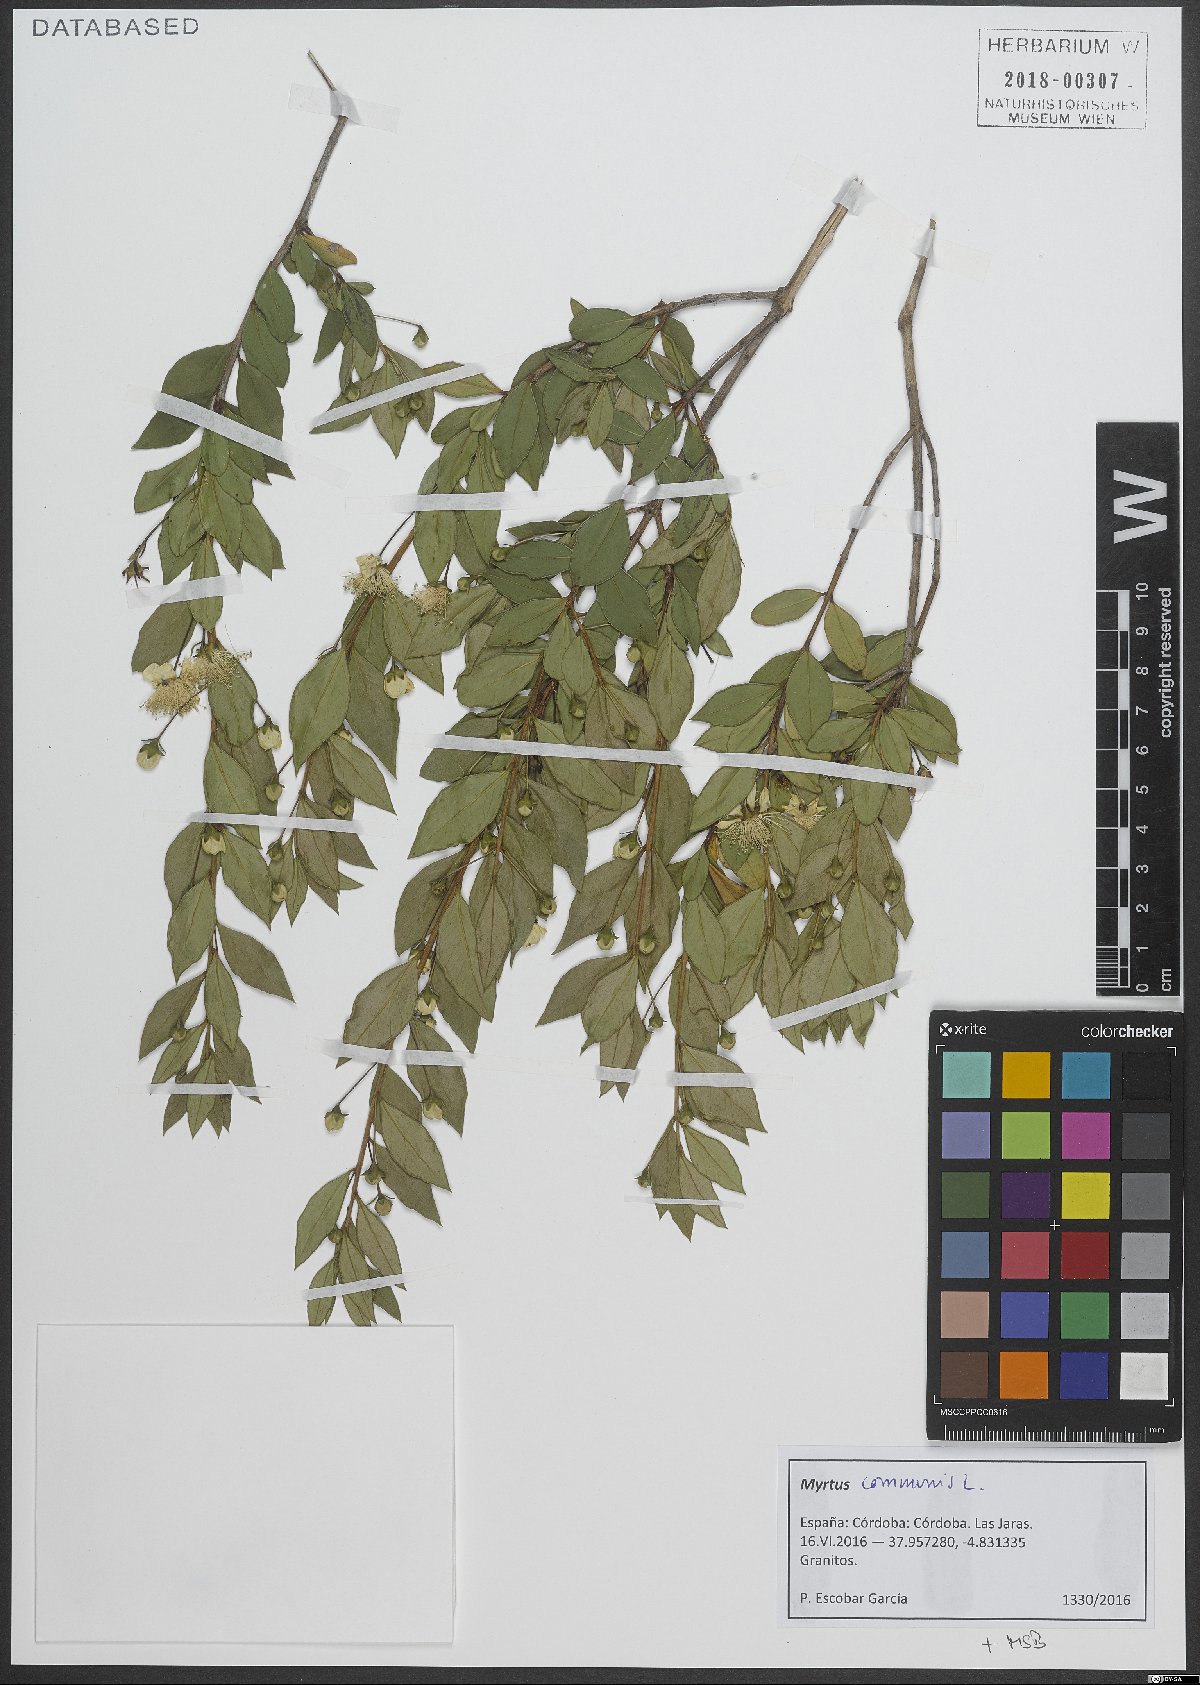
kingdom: Plantae
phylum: Tracheophyta
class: Magnoliopsida
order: Myrtales
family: Myrtaceae
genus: Myrtus
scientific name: Myrtus communis
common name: Myrtle
